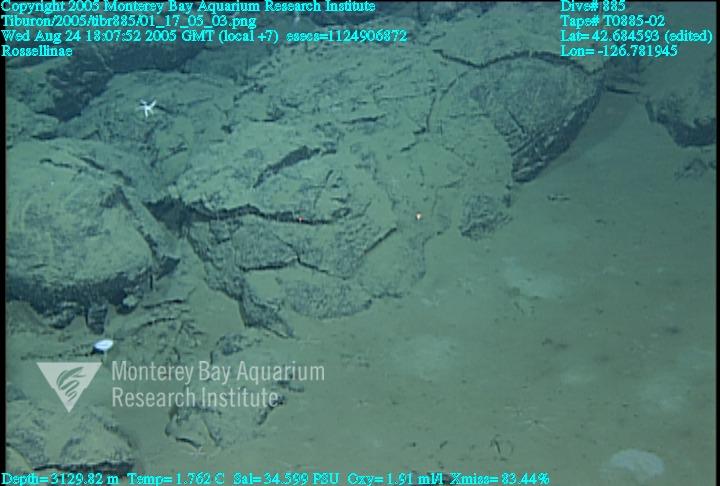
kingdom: Animalia
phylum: Porifera
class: Hexactinellida
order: Lyssacinosida
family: Rossellidae
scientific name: Rossellidae
